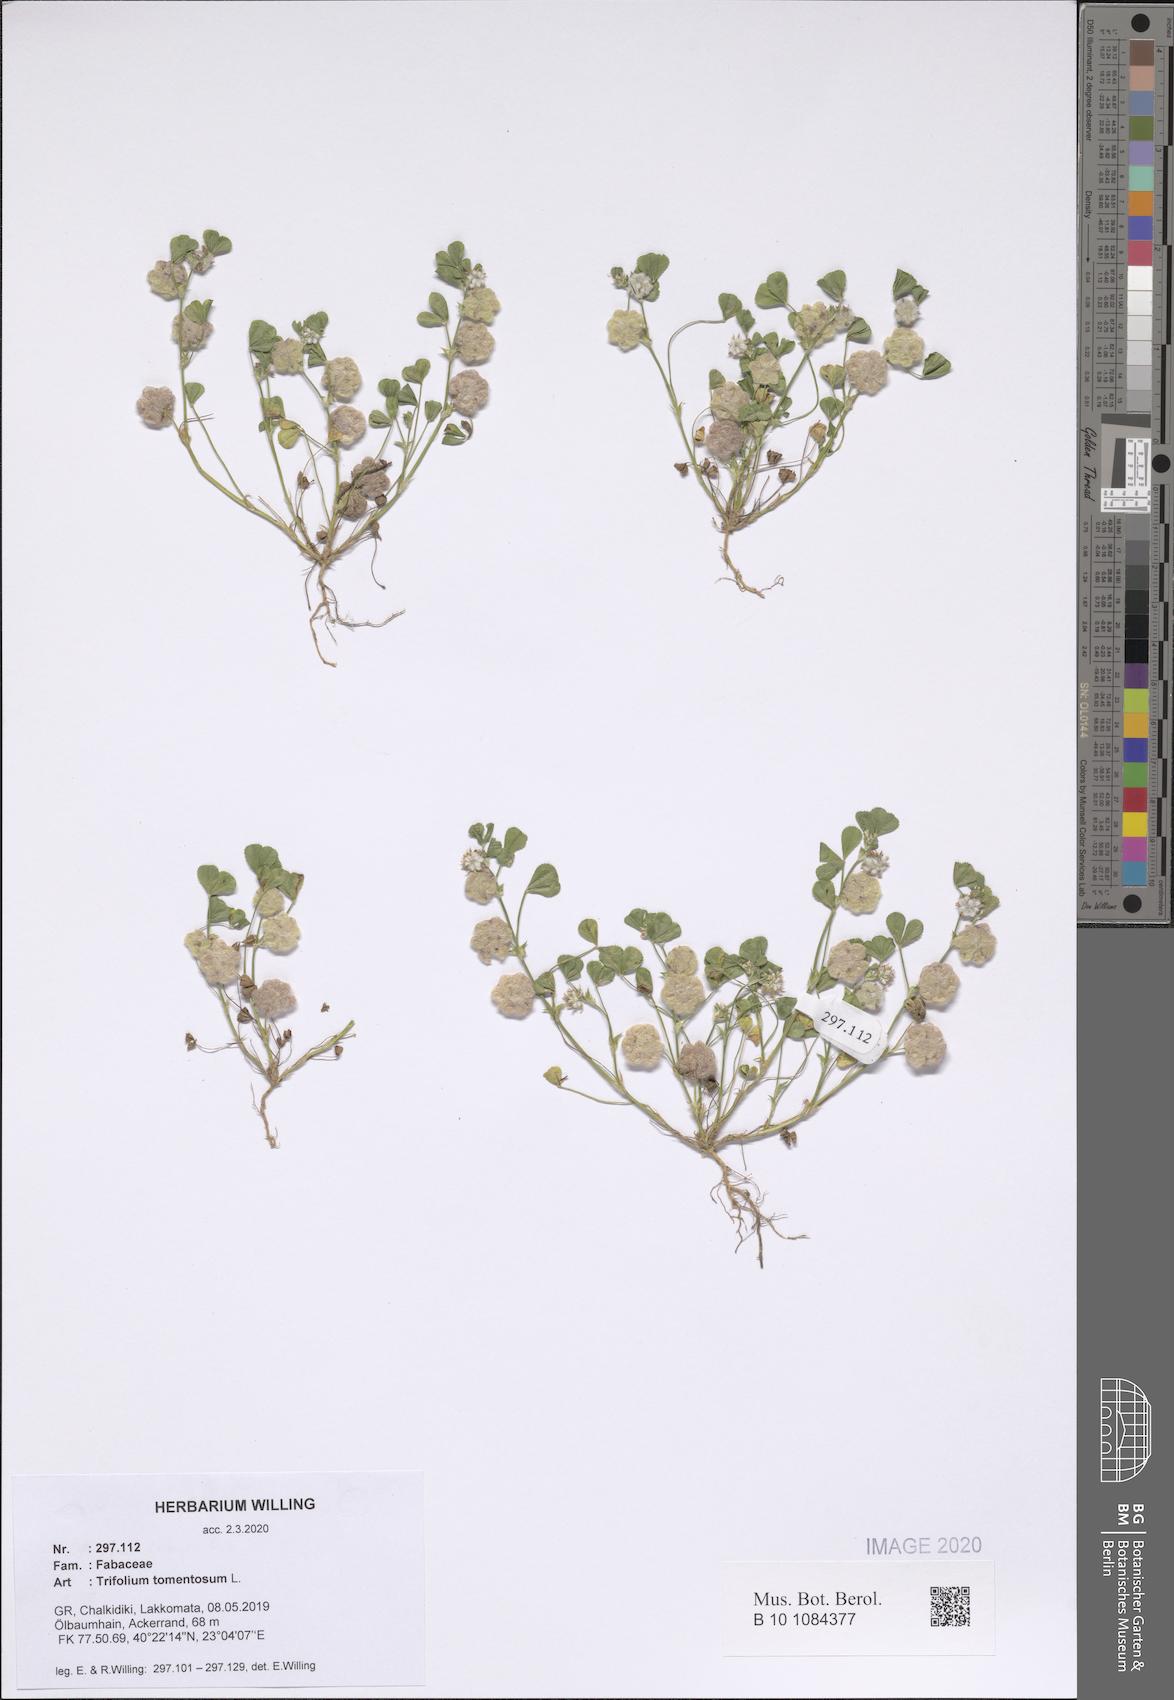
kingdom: Plantae
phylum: Tracheophyta
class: Magnoliopsida
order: Fabales
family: Fabaceae
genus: Trifolium
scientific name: Trifolium tomentosum
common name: Woolly clover
